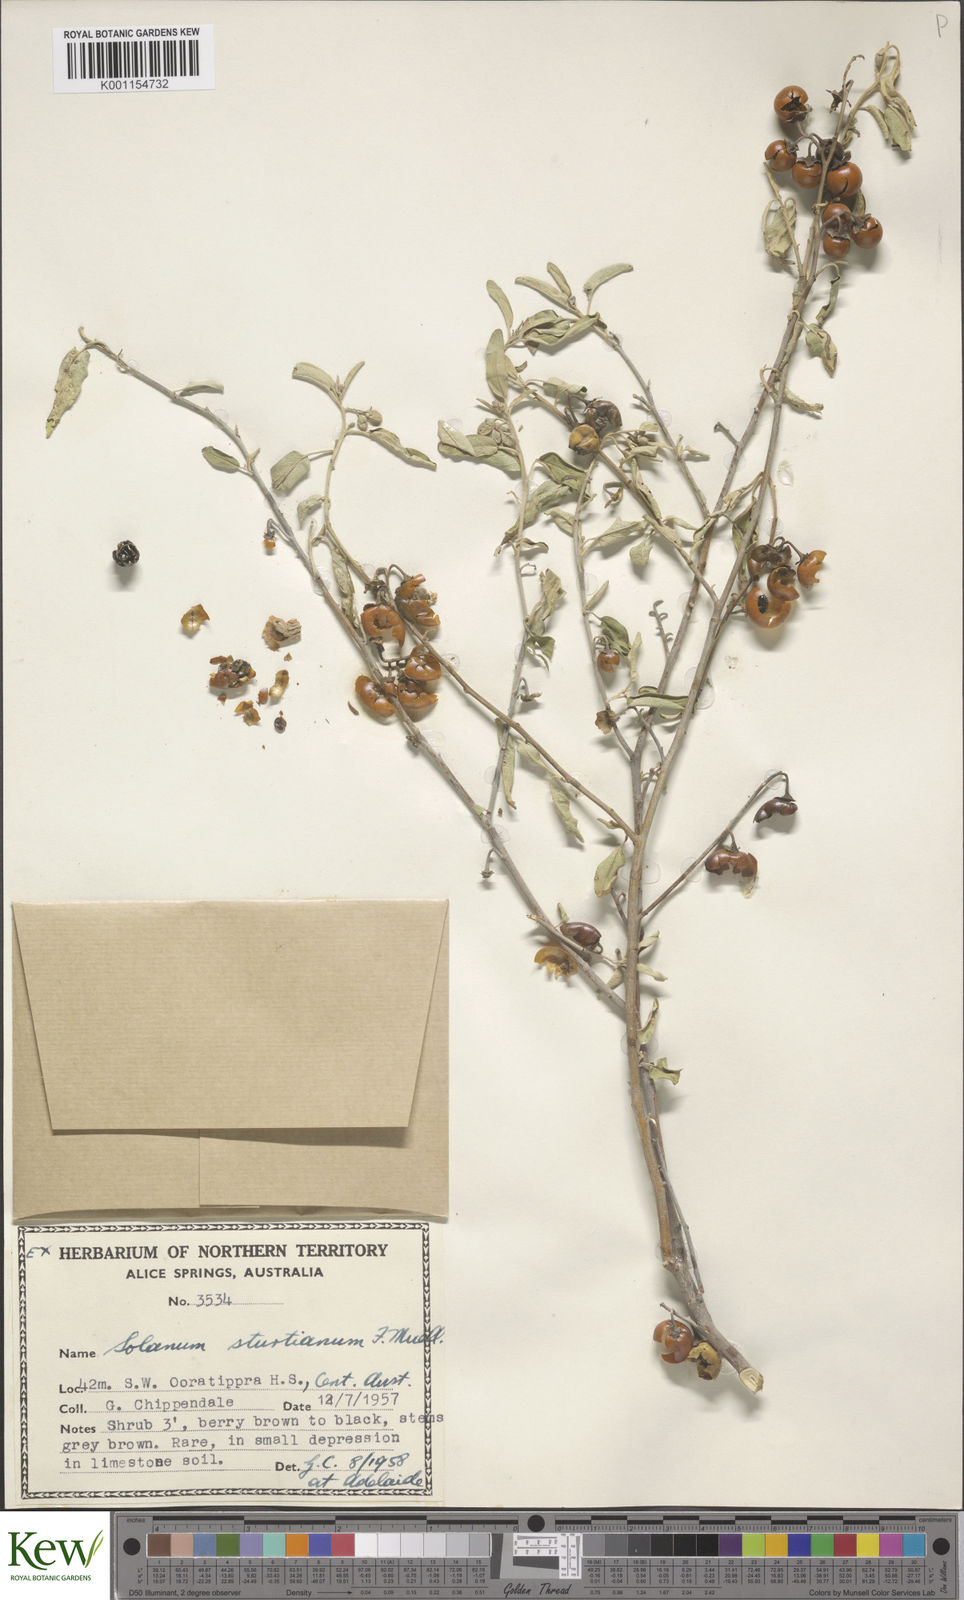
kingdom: Plantae
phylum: Tracheophyta
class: Magnoliopsida
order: Solanales
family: Solanaceae
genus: Solanum
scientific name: Solanum sturtianum
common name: Thargomindah nightshade
